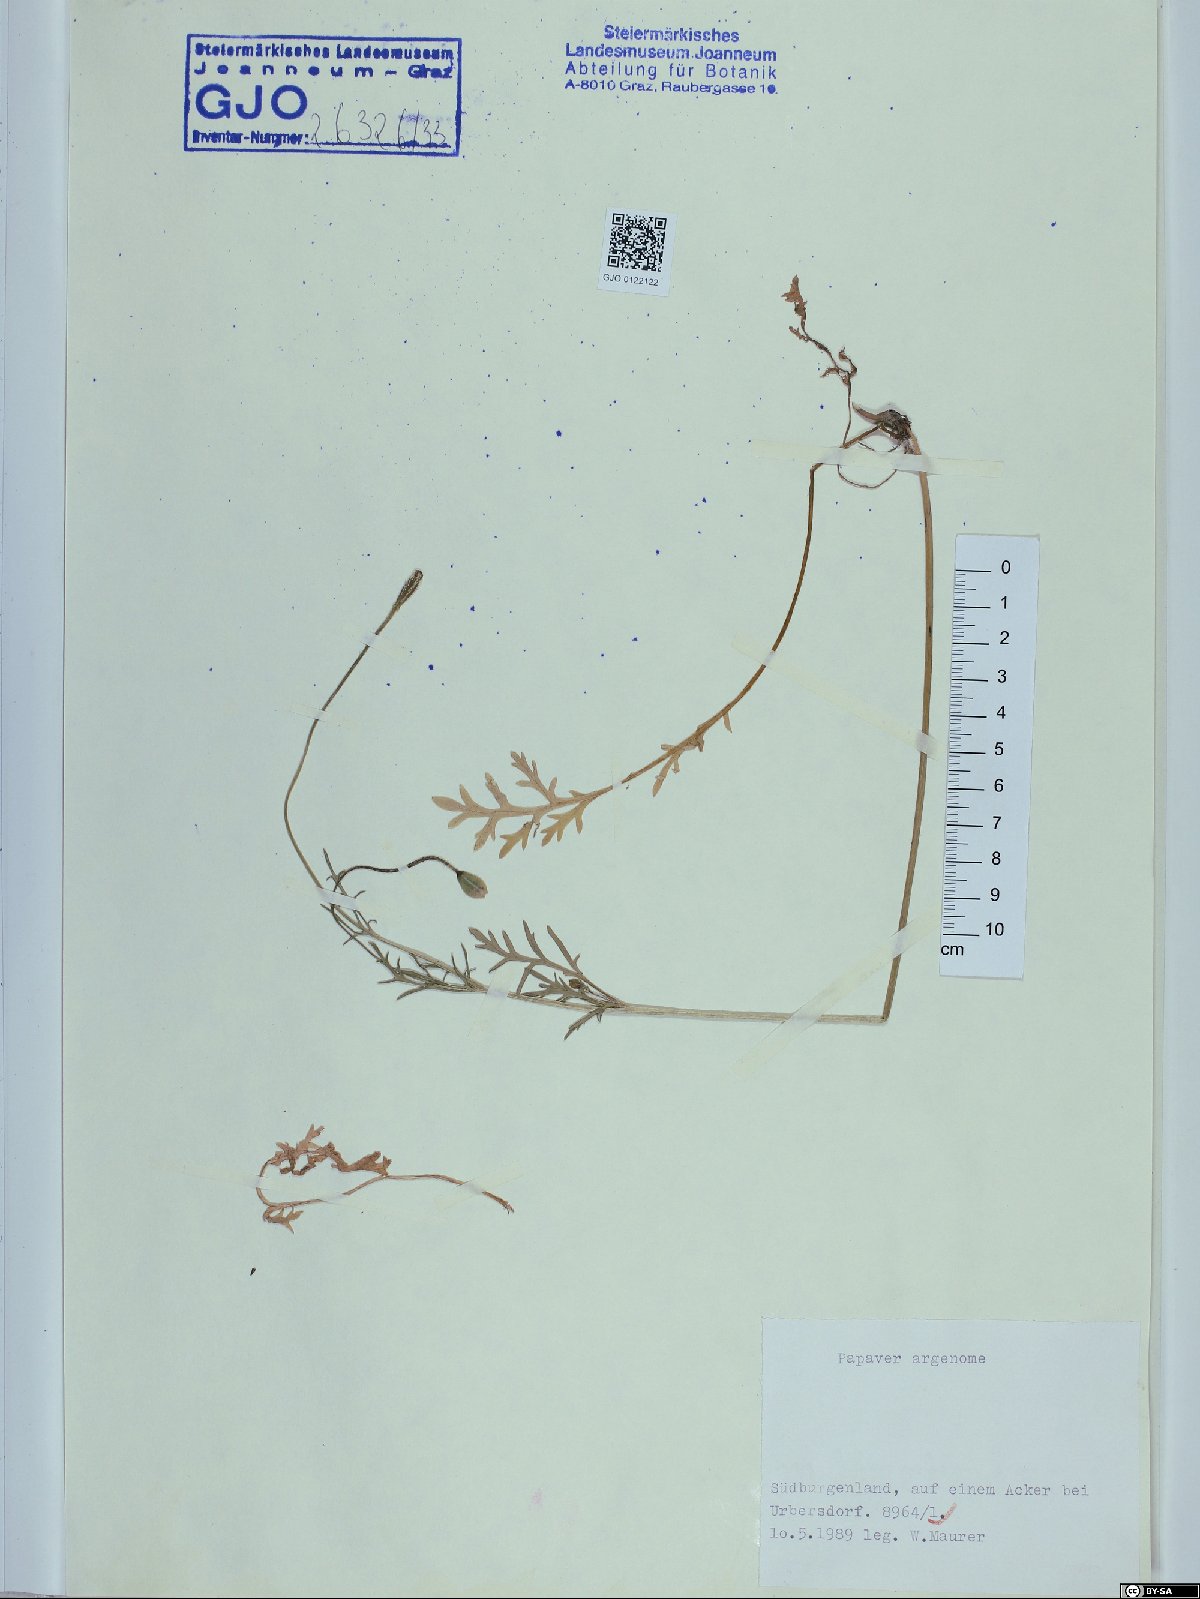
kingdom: Plantae
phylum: Tracheophyta
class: Magnoliopsida
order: Ranunculales
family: Papaveraceae
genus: Roemeria
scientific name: Roemeria argemone
